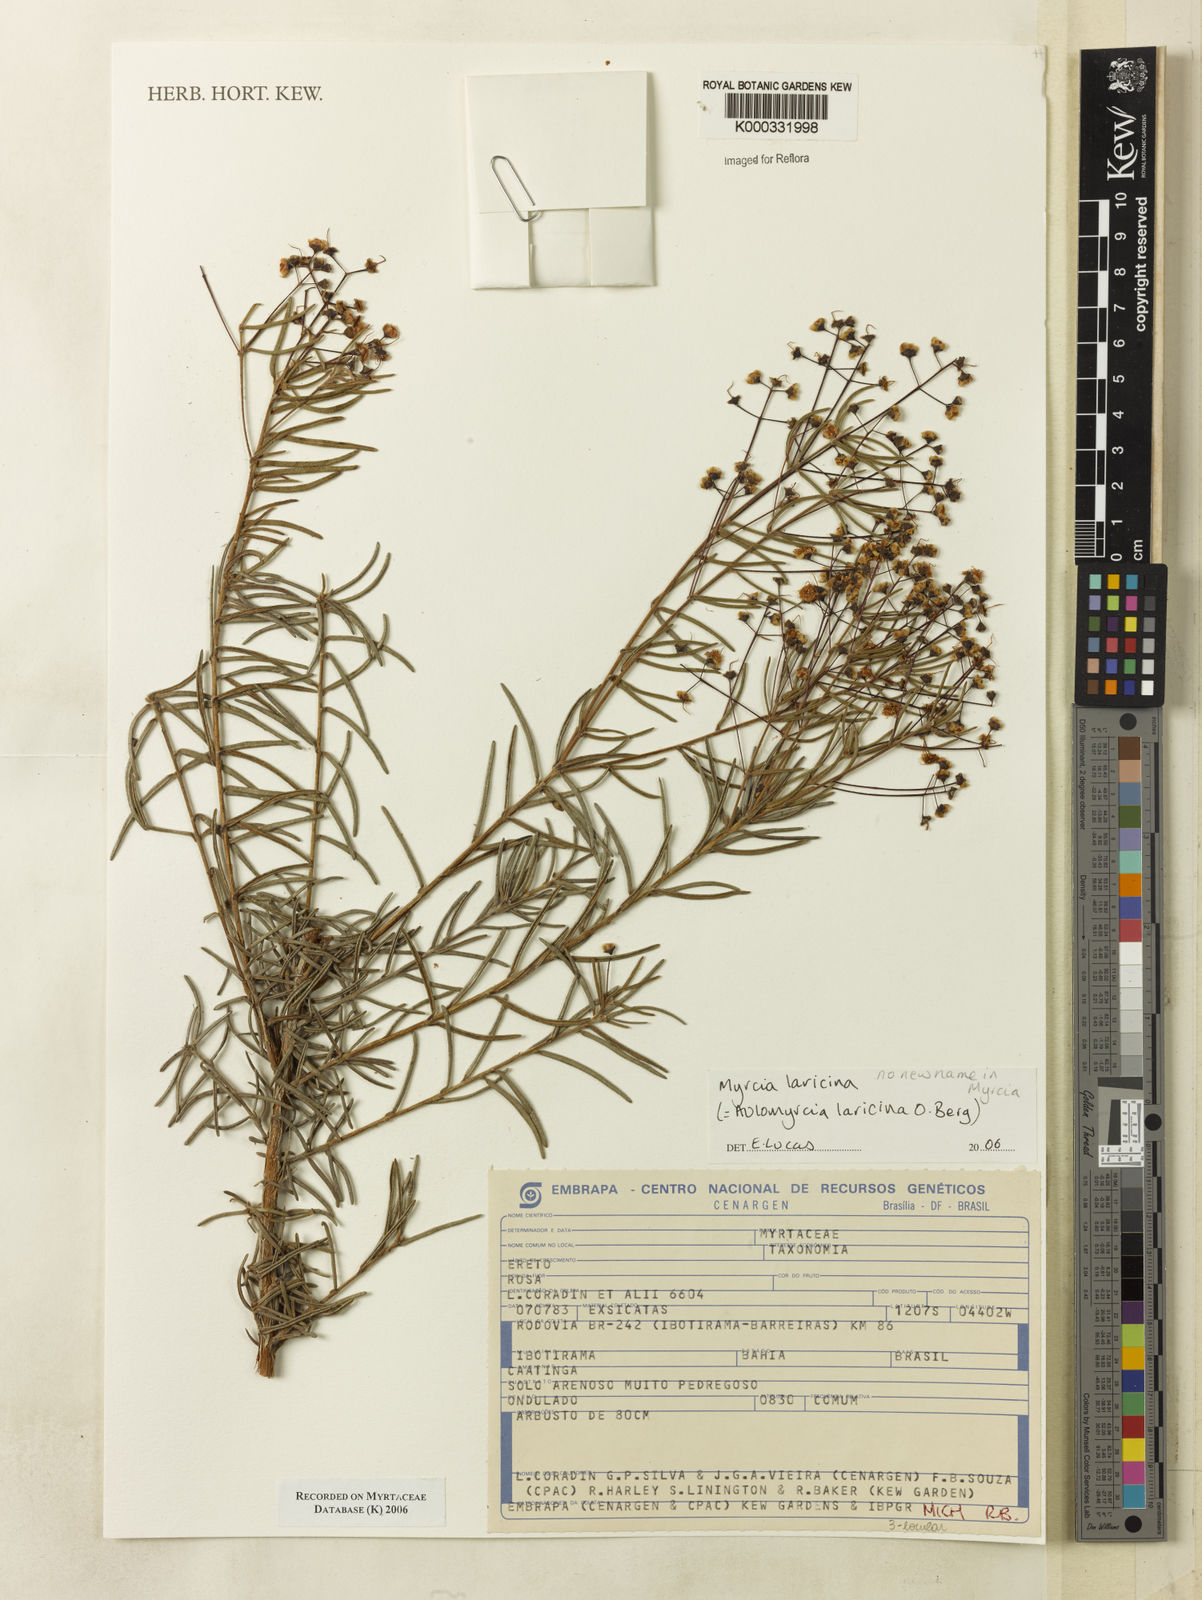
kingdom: Plantae
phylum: Tracheophyta
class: Magnoliopsida
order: Myrtales
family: Myrtaceae
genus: Myrcia
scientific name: Myrcia laricina
